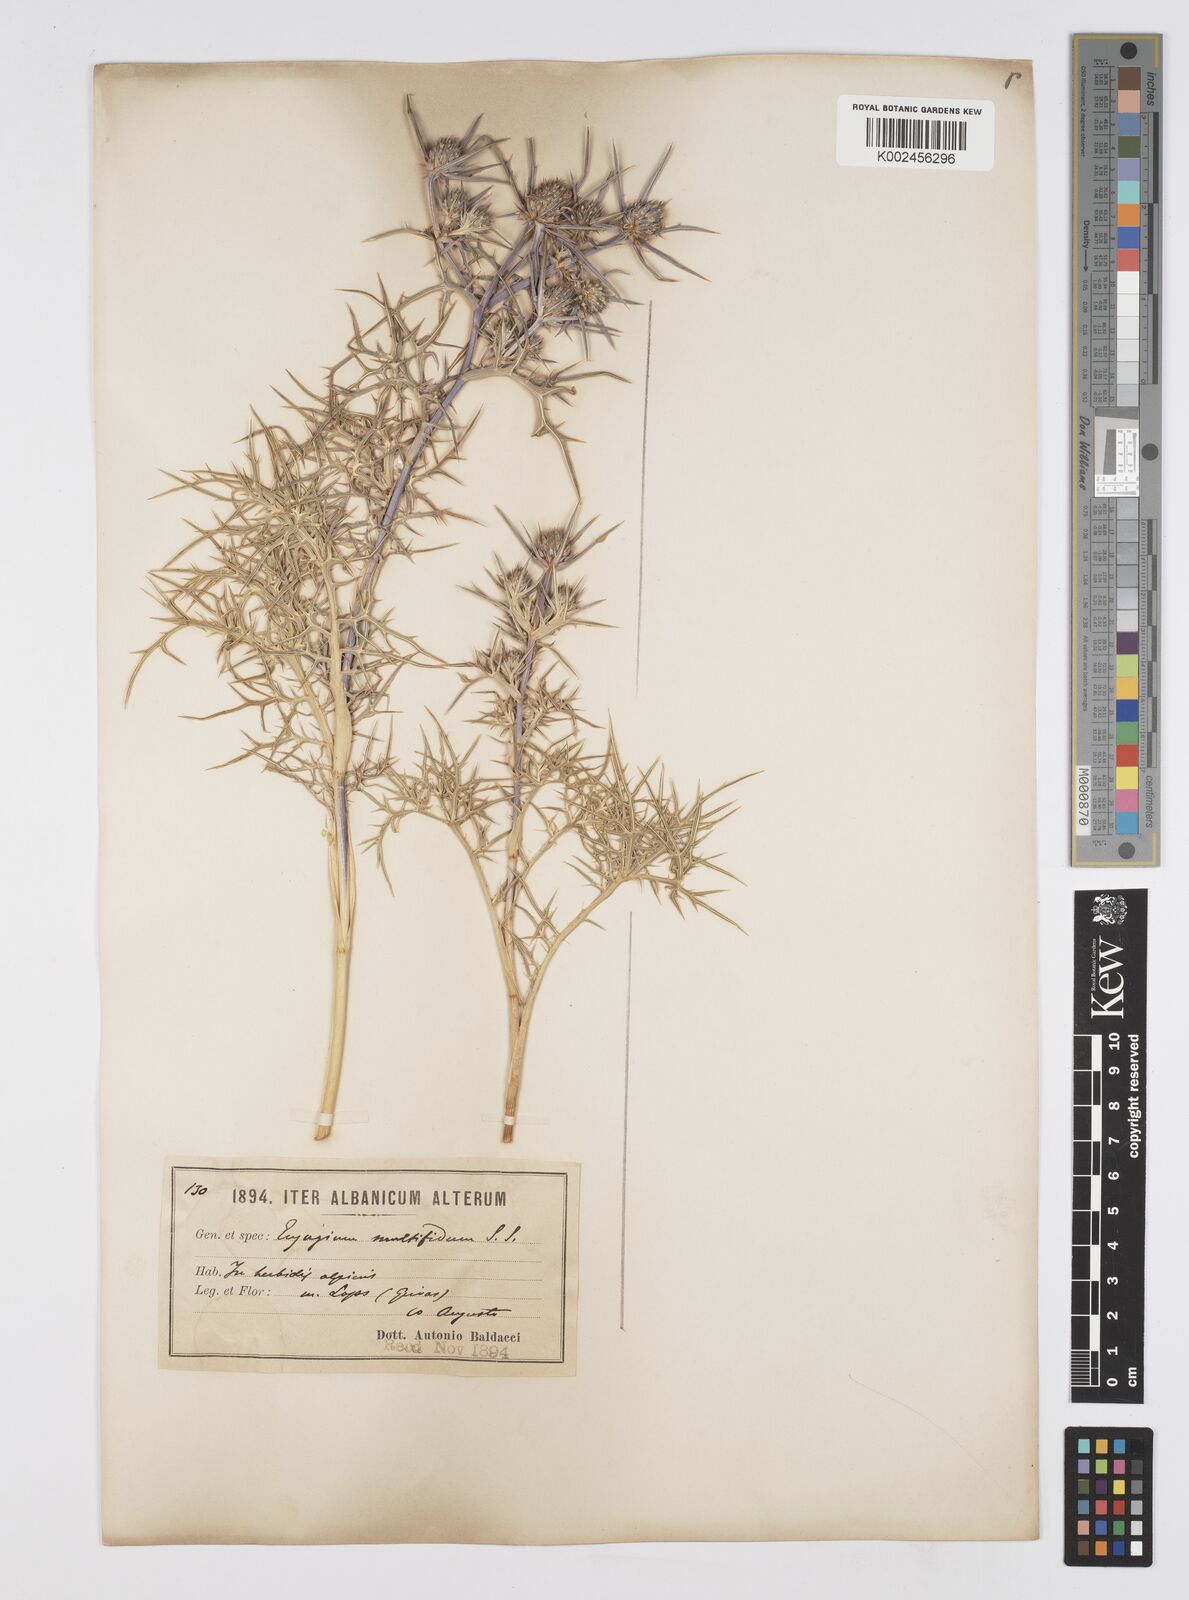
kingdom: Plantae
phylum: Tracheophyta
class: Magnoliopsida
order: Apiales
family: Apiaceae
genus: Eryngium
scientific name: Eryngium amethystinum
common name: Amethyst eryngo
